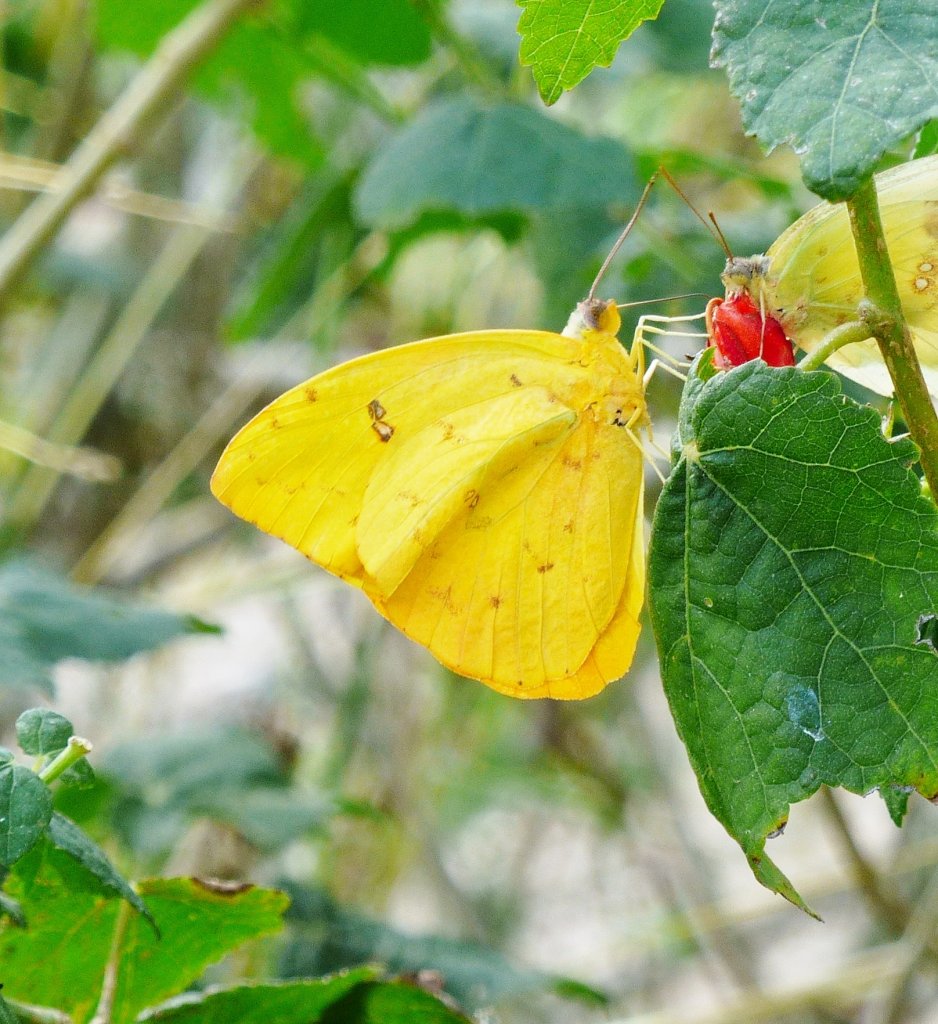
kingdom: Animalia
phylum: Arthropoda
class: Insecta
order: Lepidoptera
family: Pieridae
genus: Phoebis
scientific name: Phoebis philea
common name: Orange-barred Sulphur
